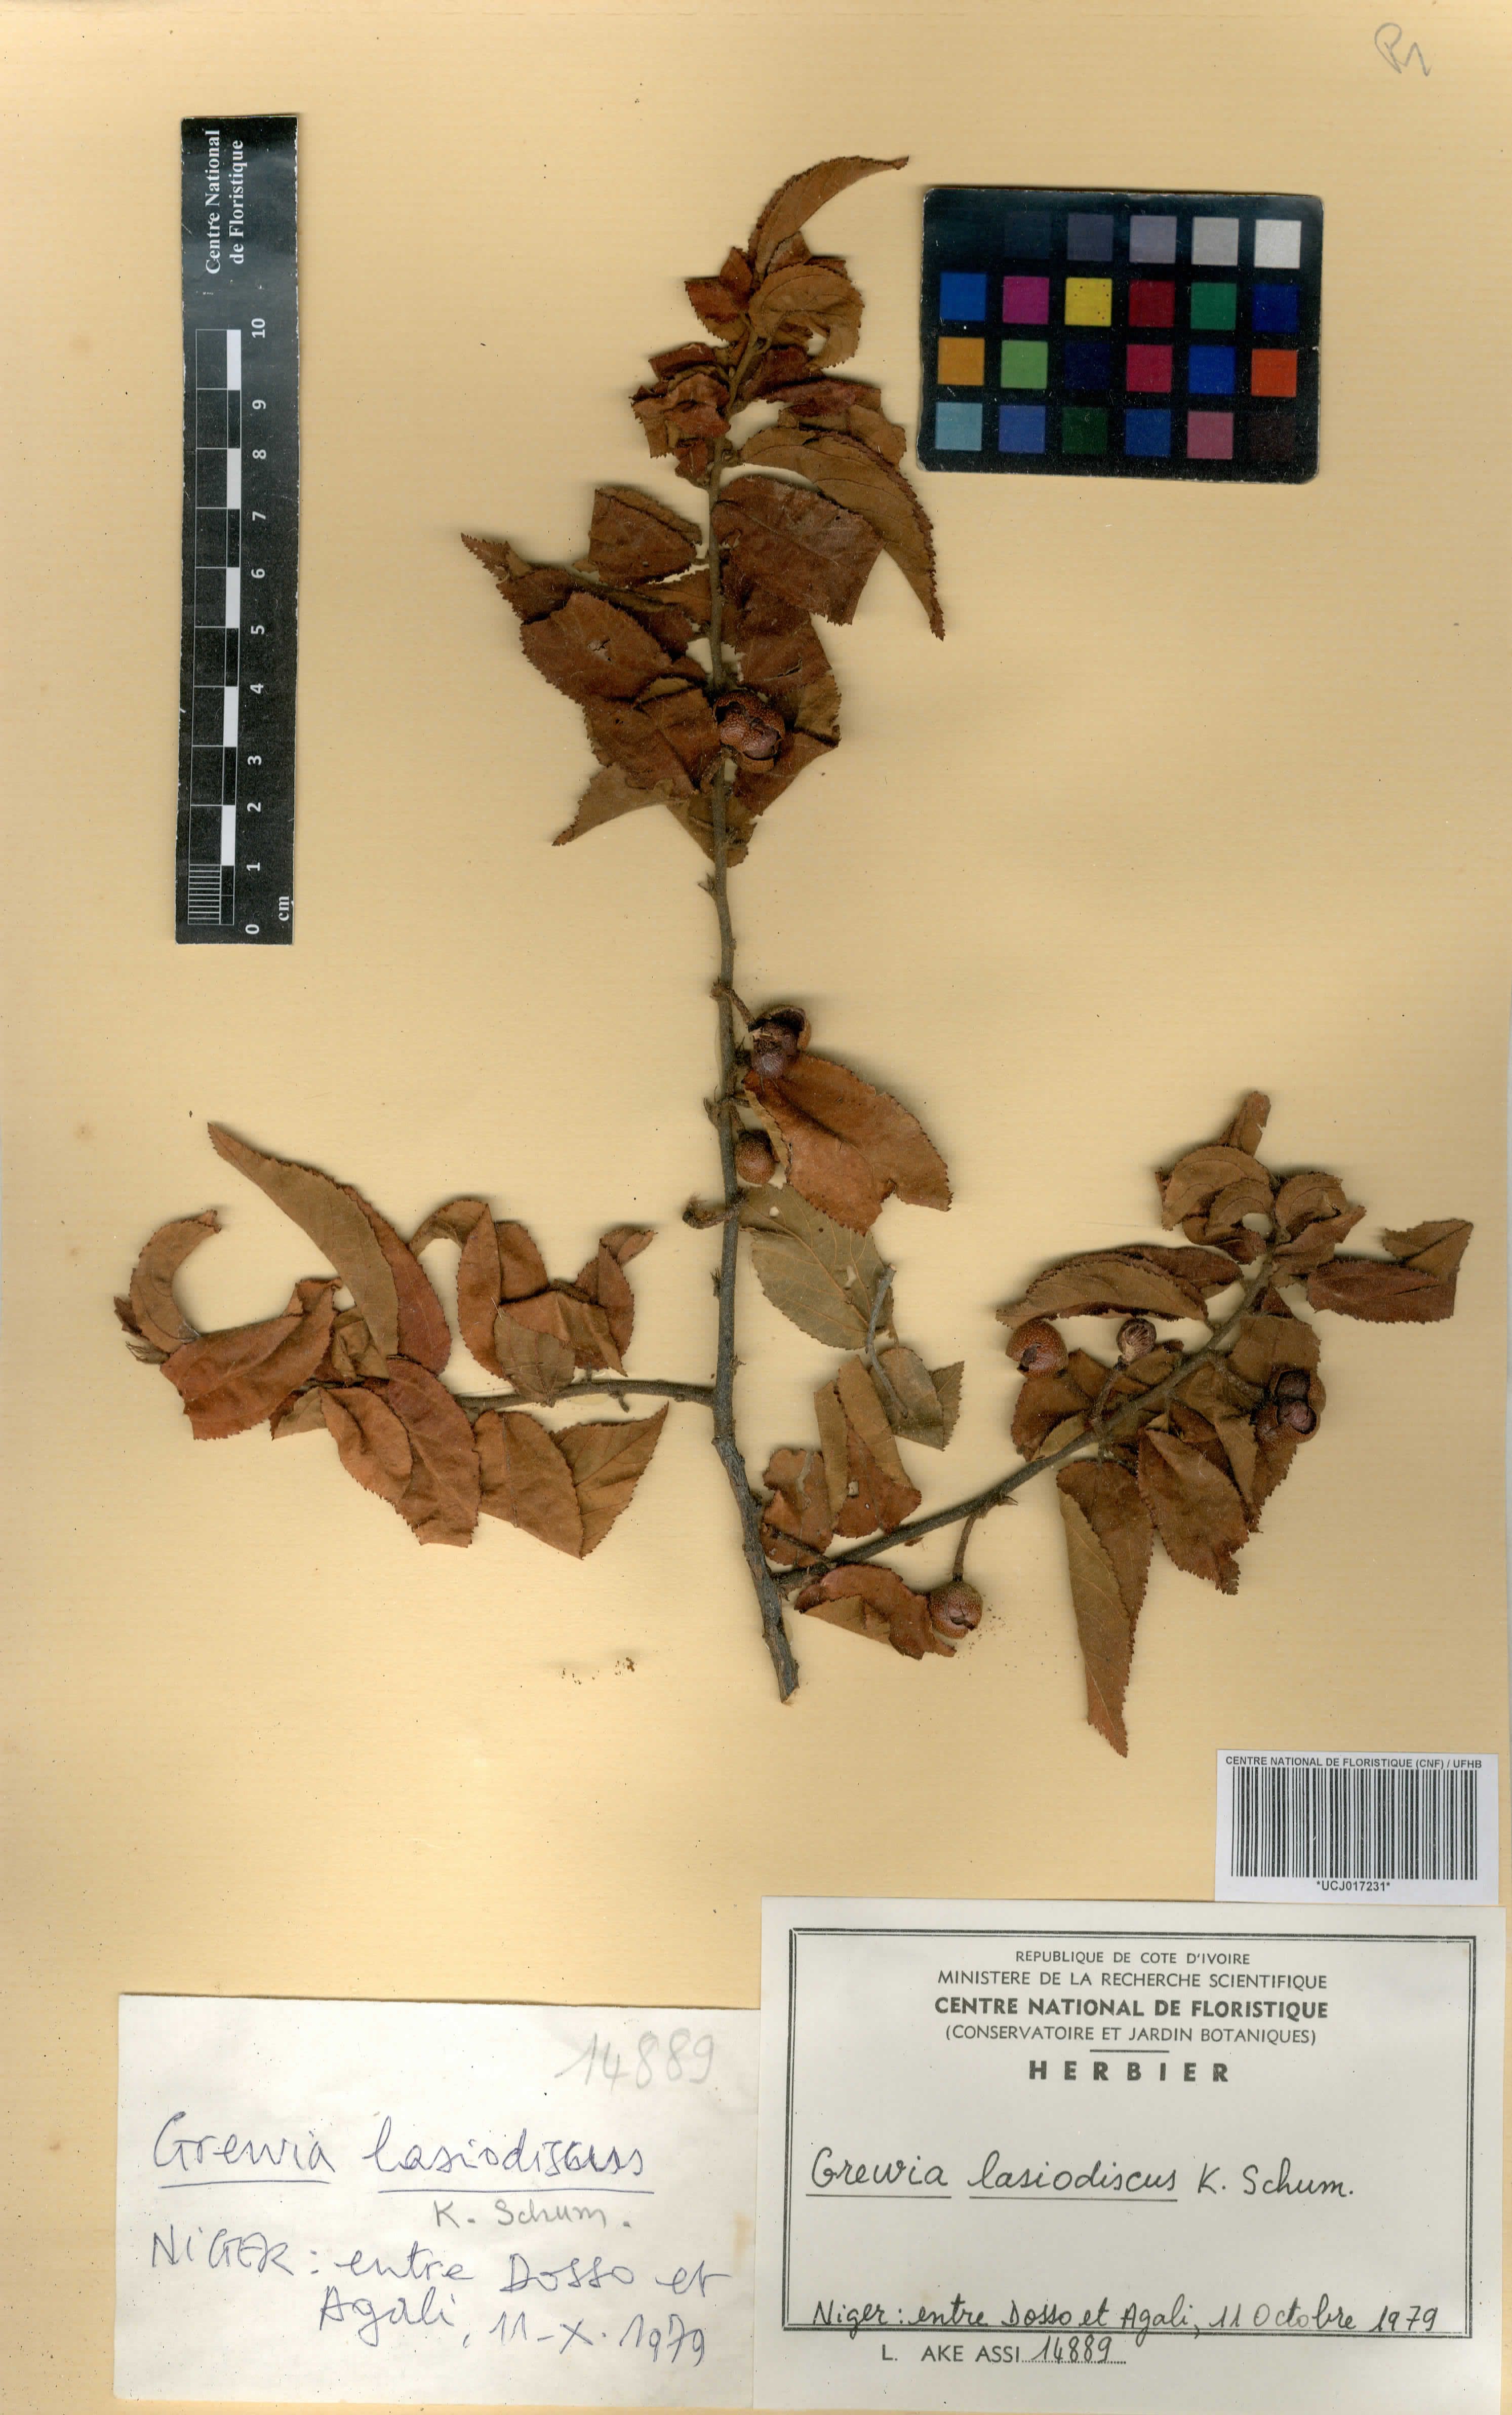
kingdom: Plantae
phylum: Tracheophyta
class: Magnoliopsida
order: Malvales
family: Malvaceae
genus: Grewia
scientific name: Grewia lasiodiscus
